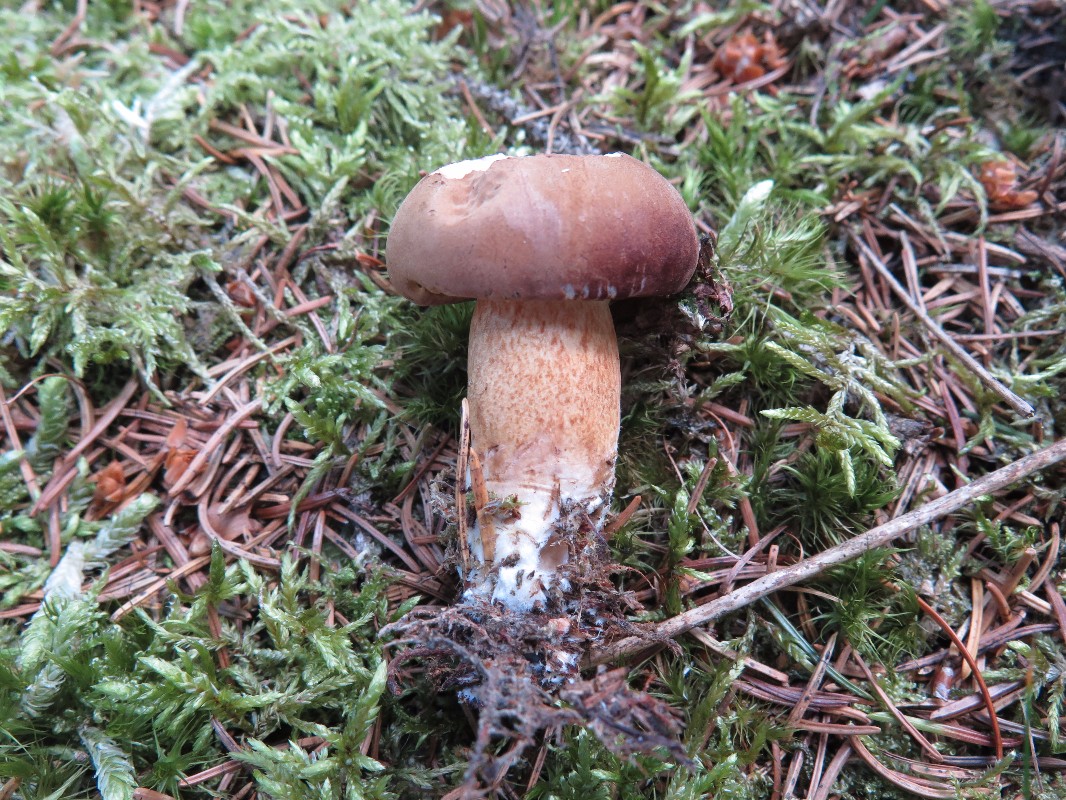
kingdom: Fungi
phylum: Basidiomycota
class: Agaricomycetes
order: Boletales
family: Boletaceae
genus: Imleria
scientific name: Imleria badia
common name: brunstokket rørhat
